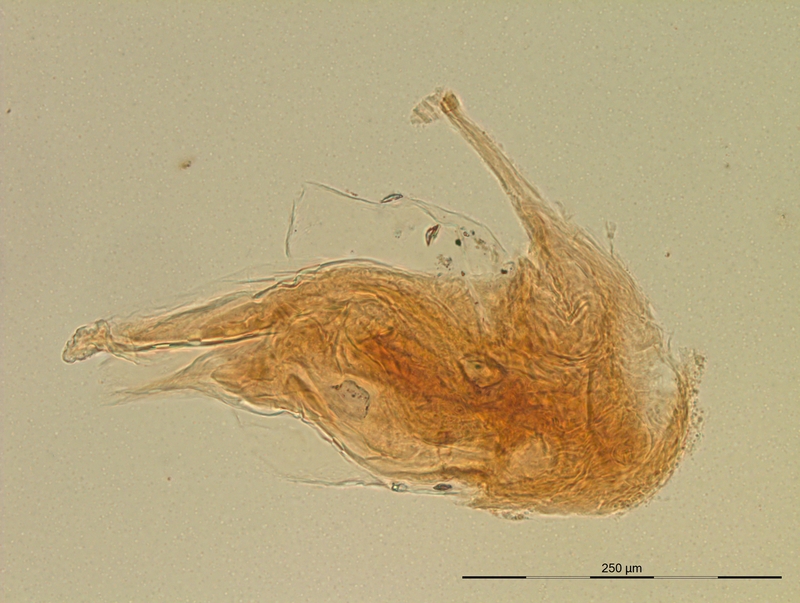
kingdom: Animalia
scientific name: Animalia
